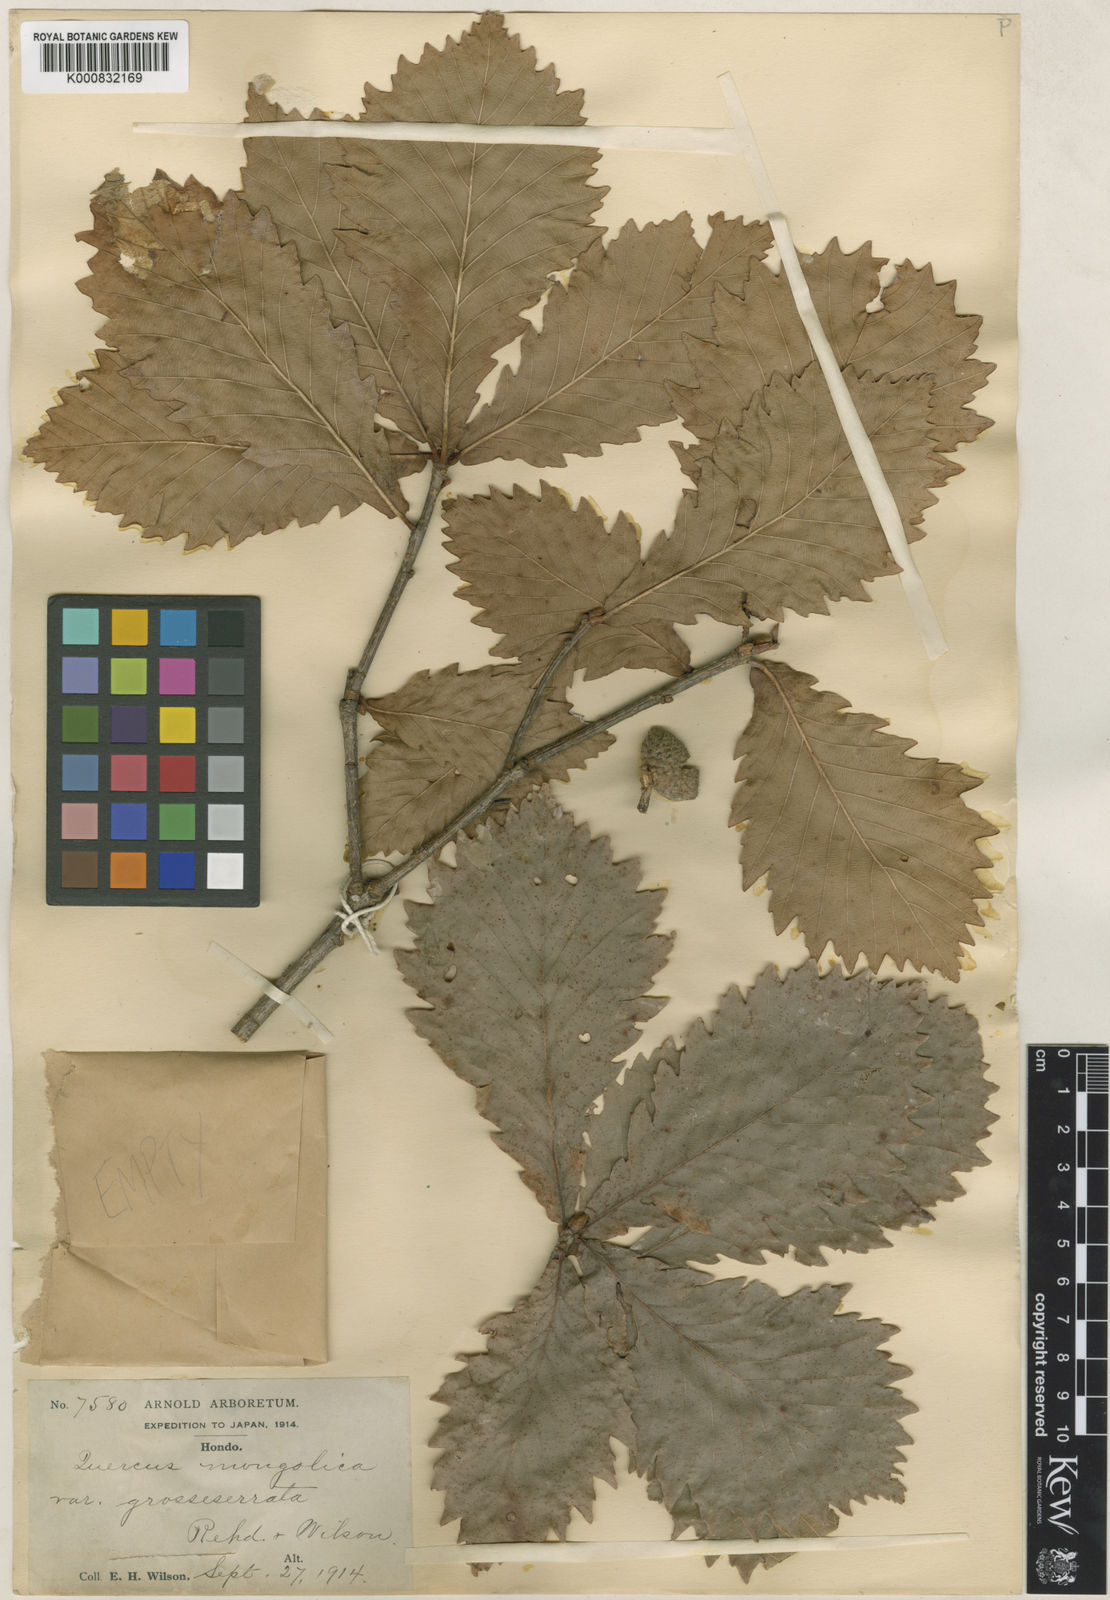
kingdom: Plantae
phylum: Tracheophyta
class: Magnoliopsida
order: Fagales
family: Fagaceae
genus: Quercus
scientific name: Quercus mongolica
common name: Mongolian oak
